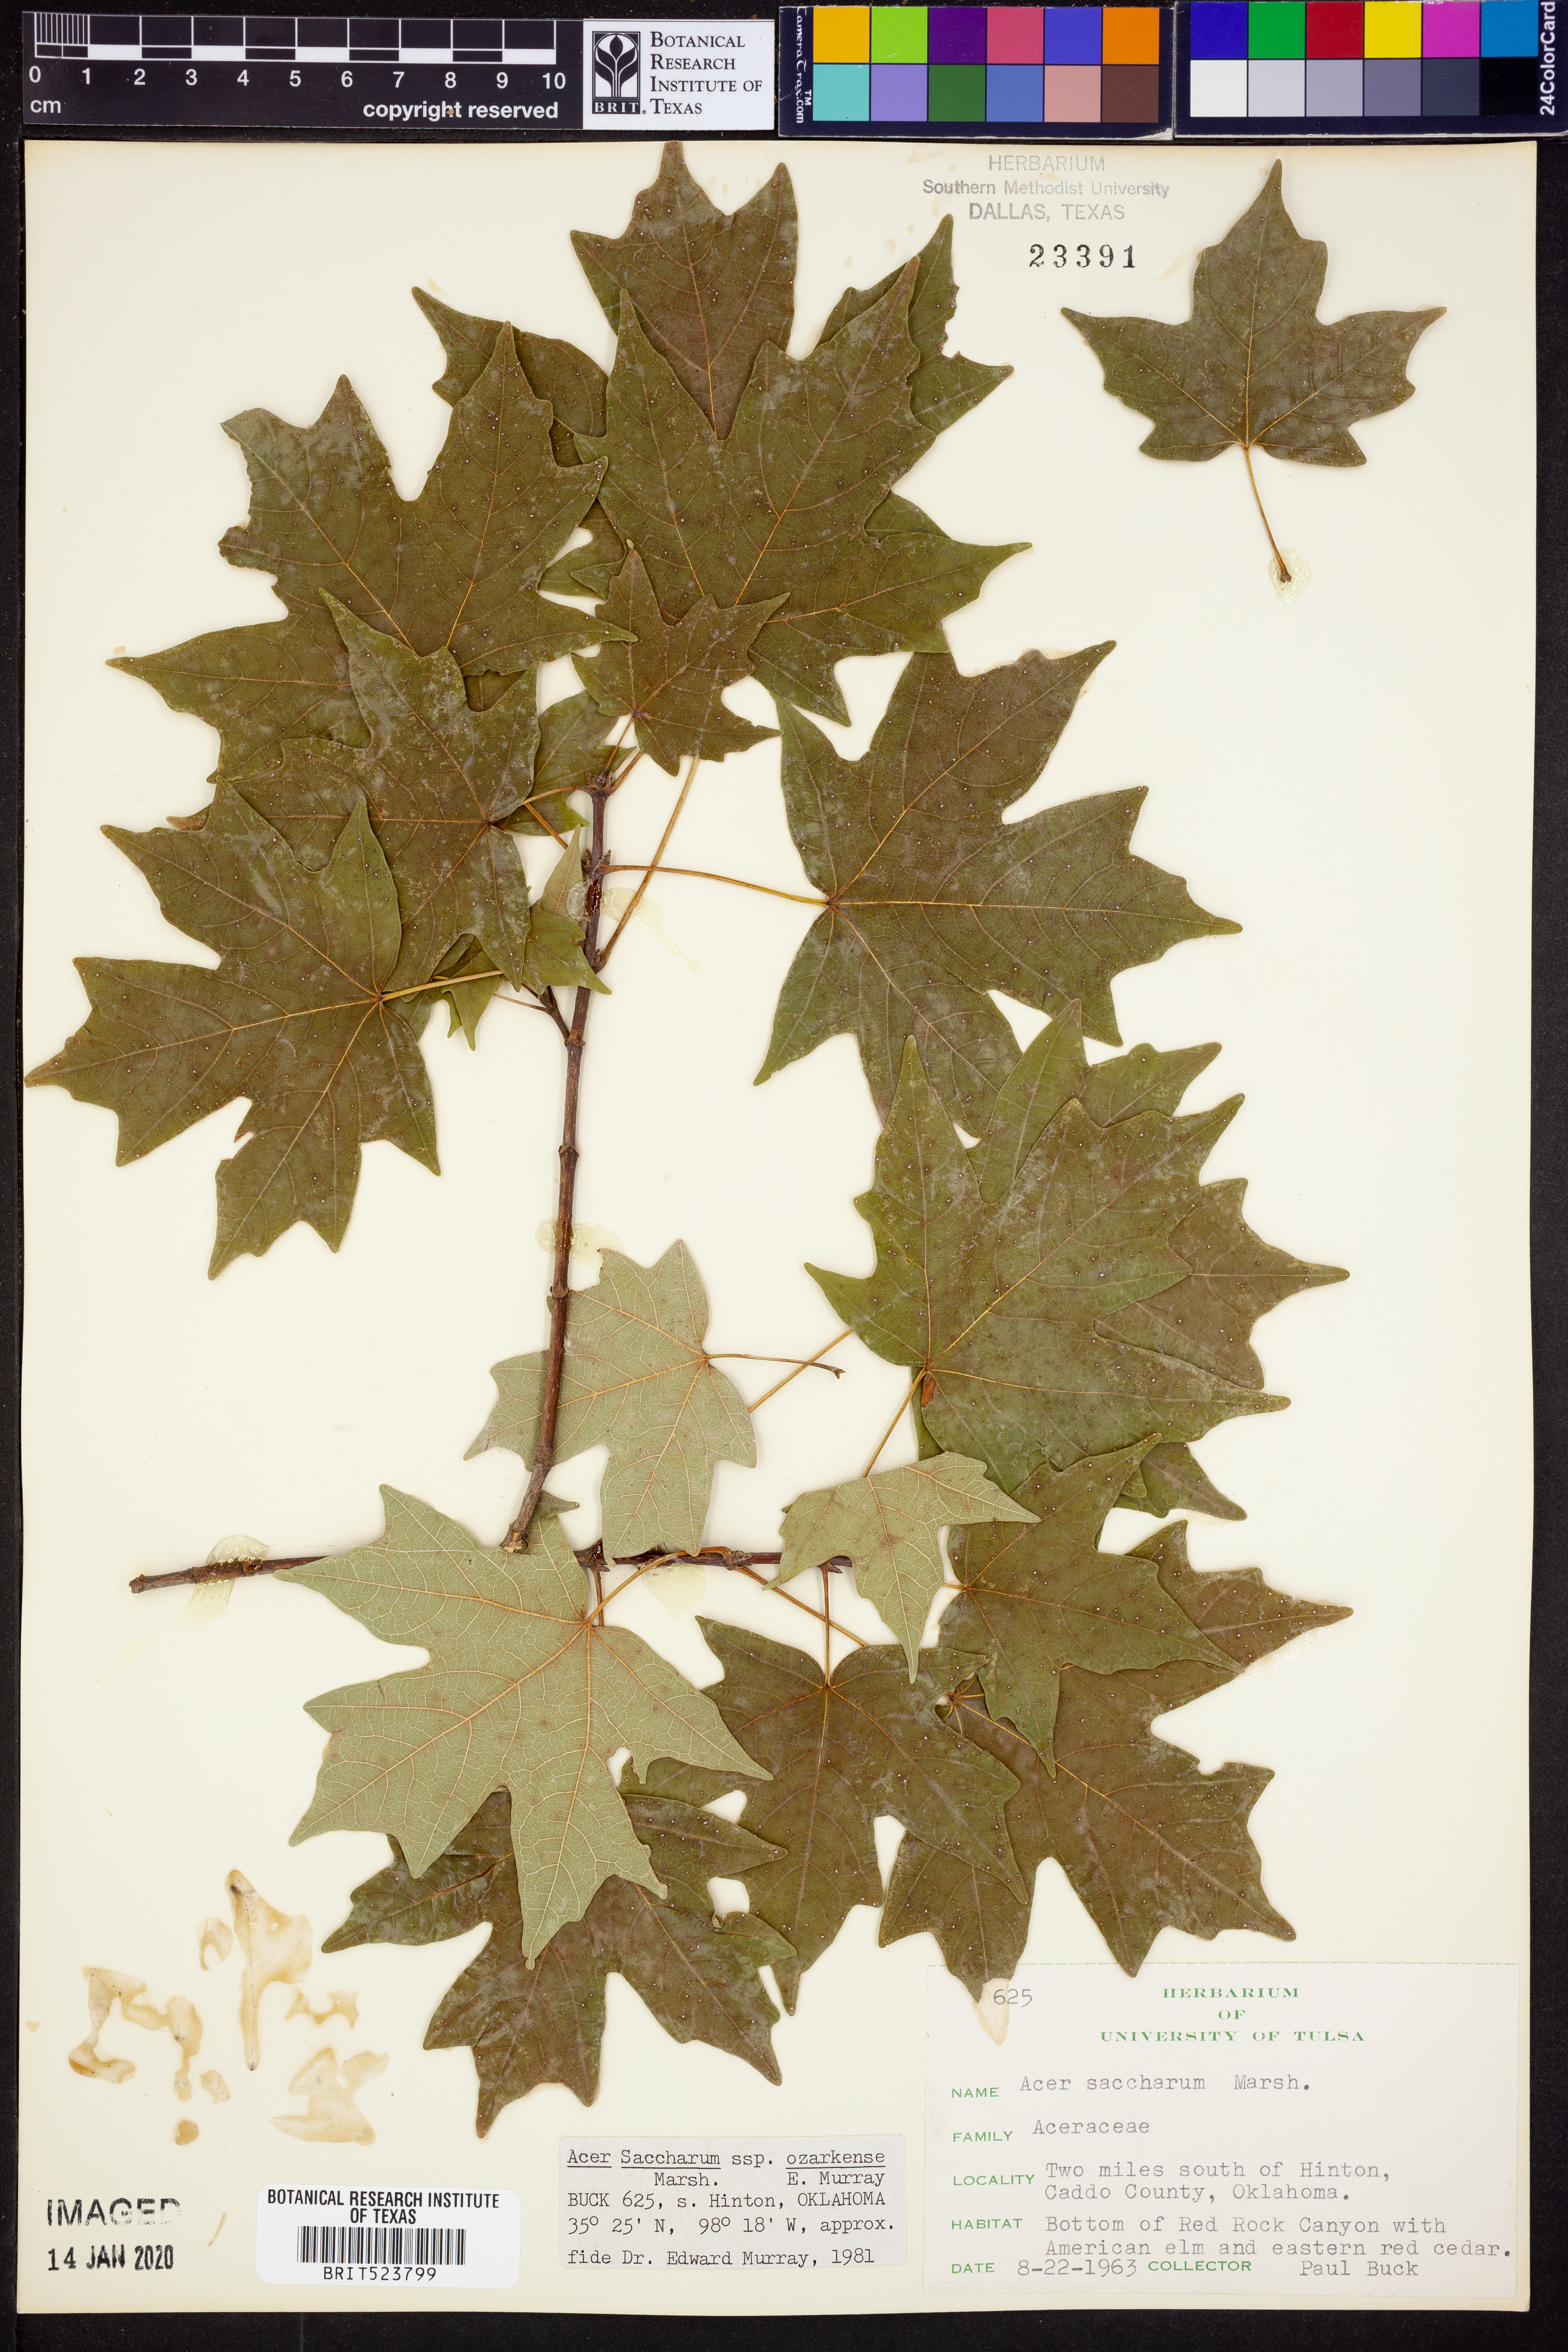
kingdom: Plantae
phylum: Tracheophyta
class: Magnoliopsida
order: Sapindales
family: Sapindaceae
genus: Acer
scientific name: Acer saccharum
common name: Sugar maple
